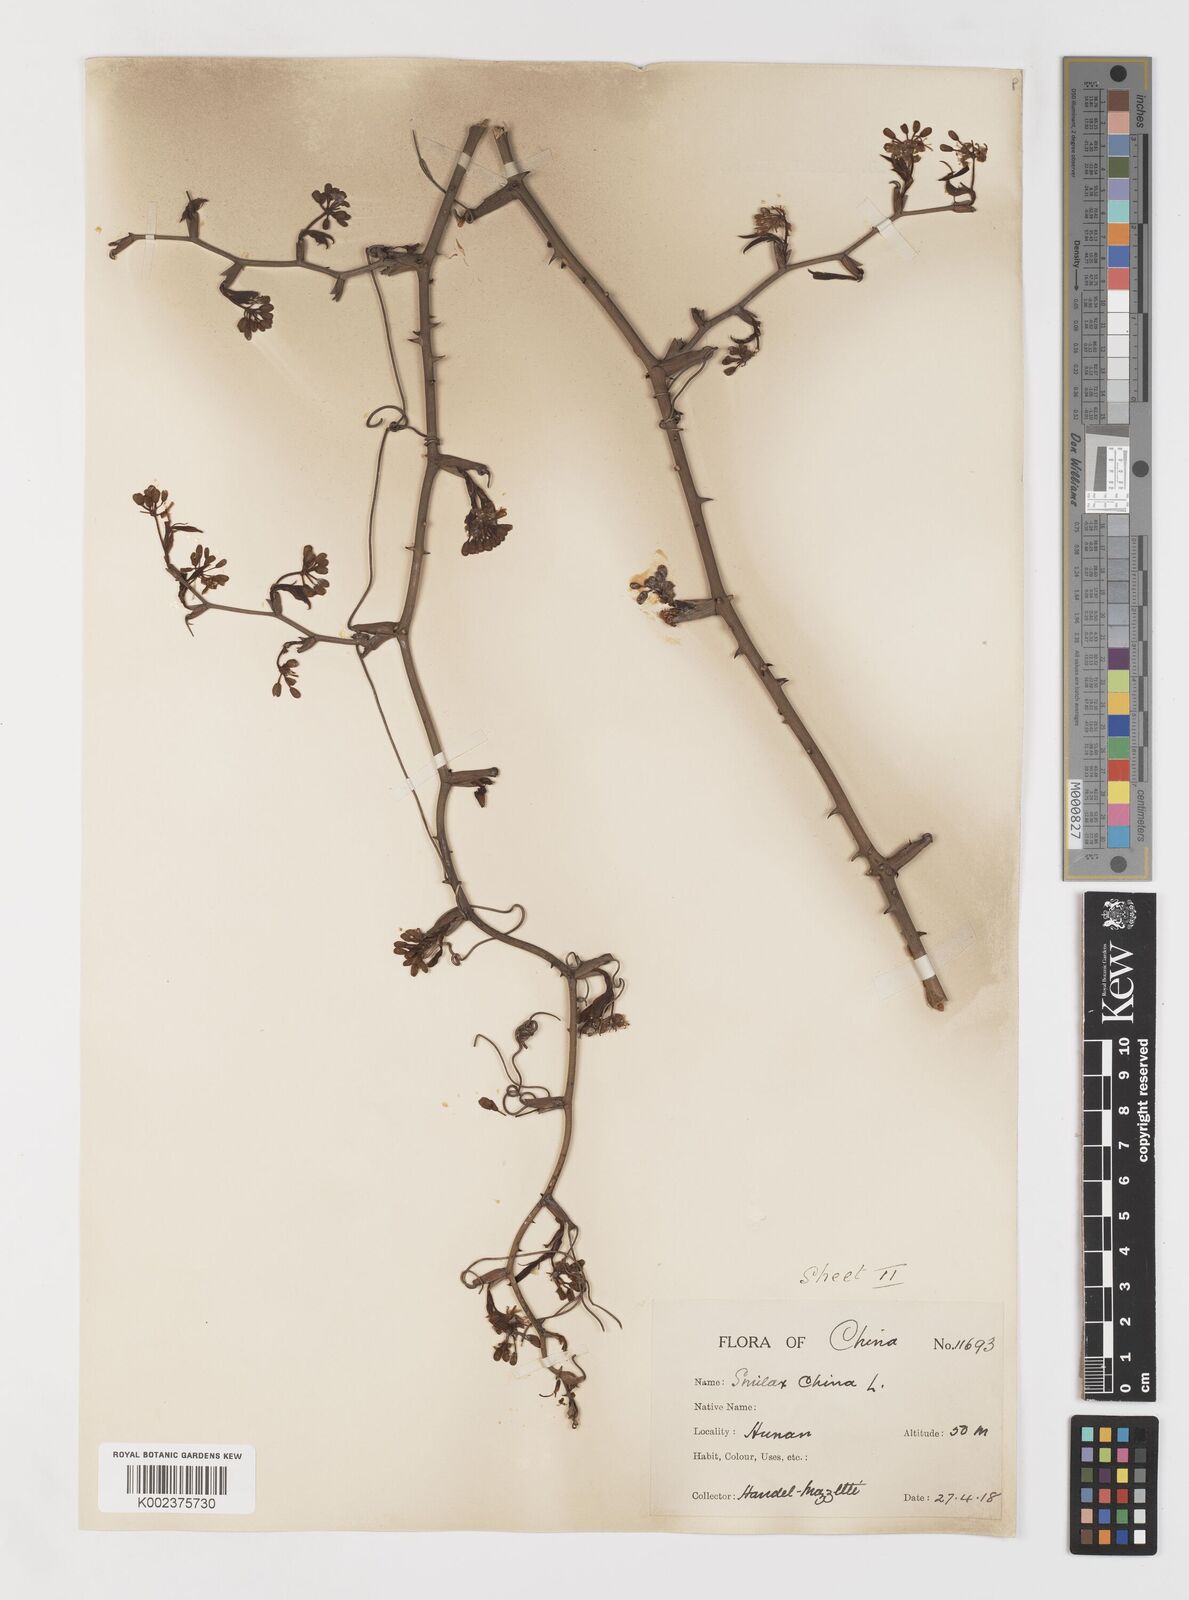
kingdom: Plantae
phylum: Tracheophyta
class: Liliopsida
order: Liliales
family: Smilacaceae
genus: Smilax
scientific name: Smilax china
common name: Chinaroot
